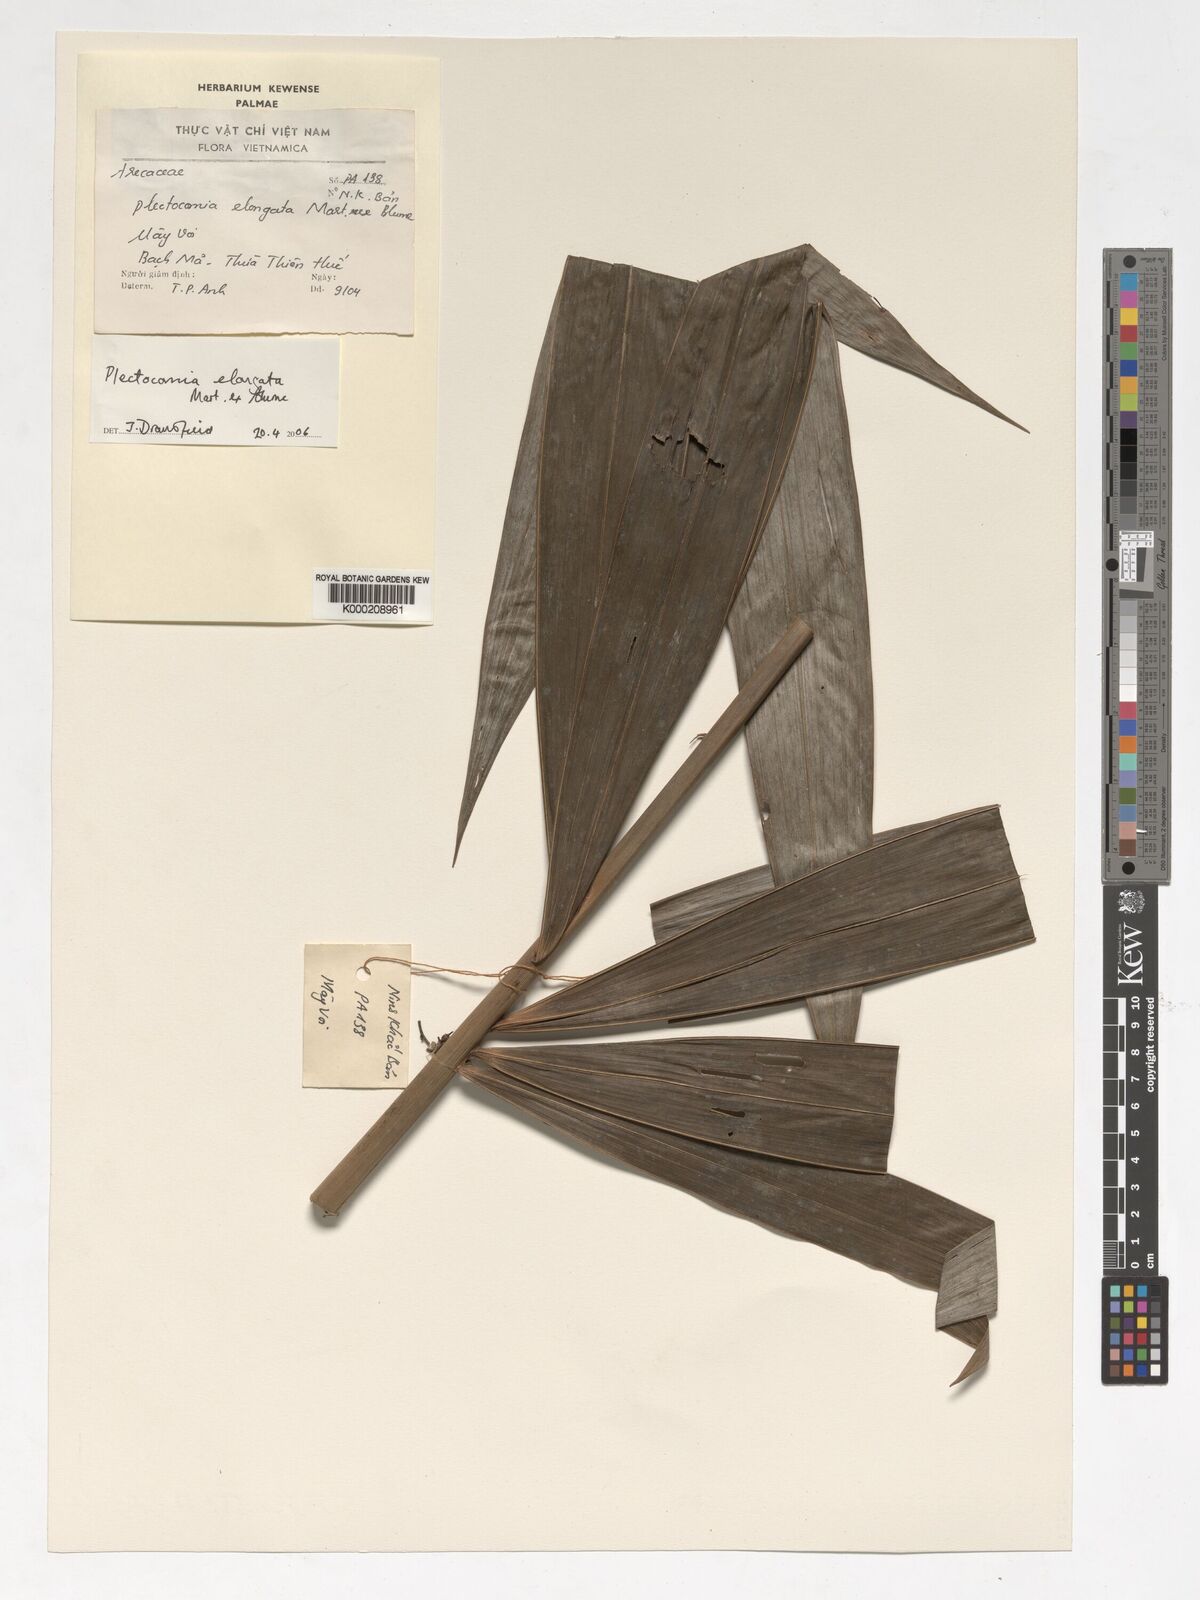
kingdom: Plantae
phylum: Tracheophyta
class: Liliopsida
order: Arecales
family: Arecaceae
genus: Plectocomia
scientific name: Plectocomia elongata
